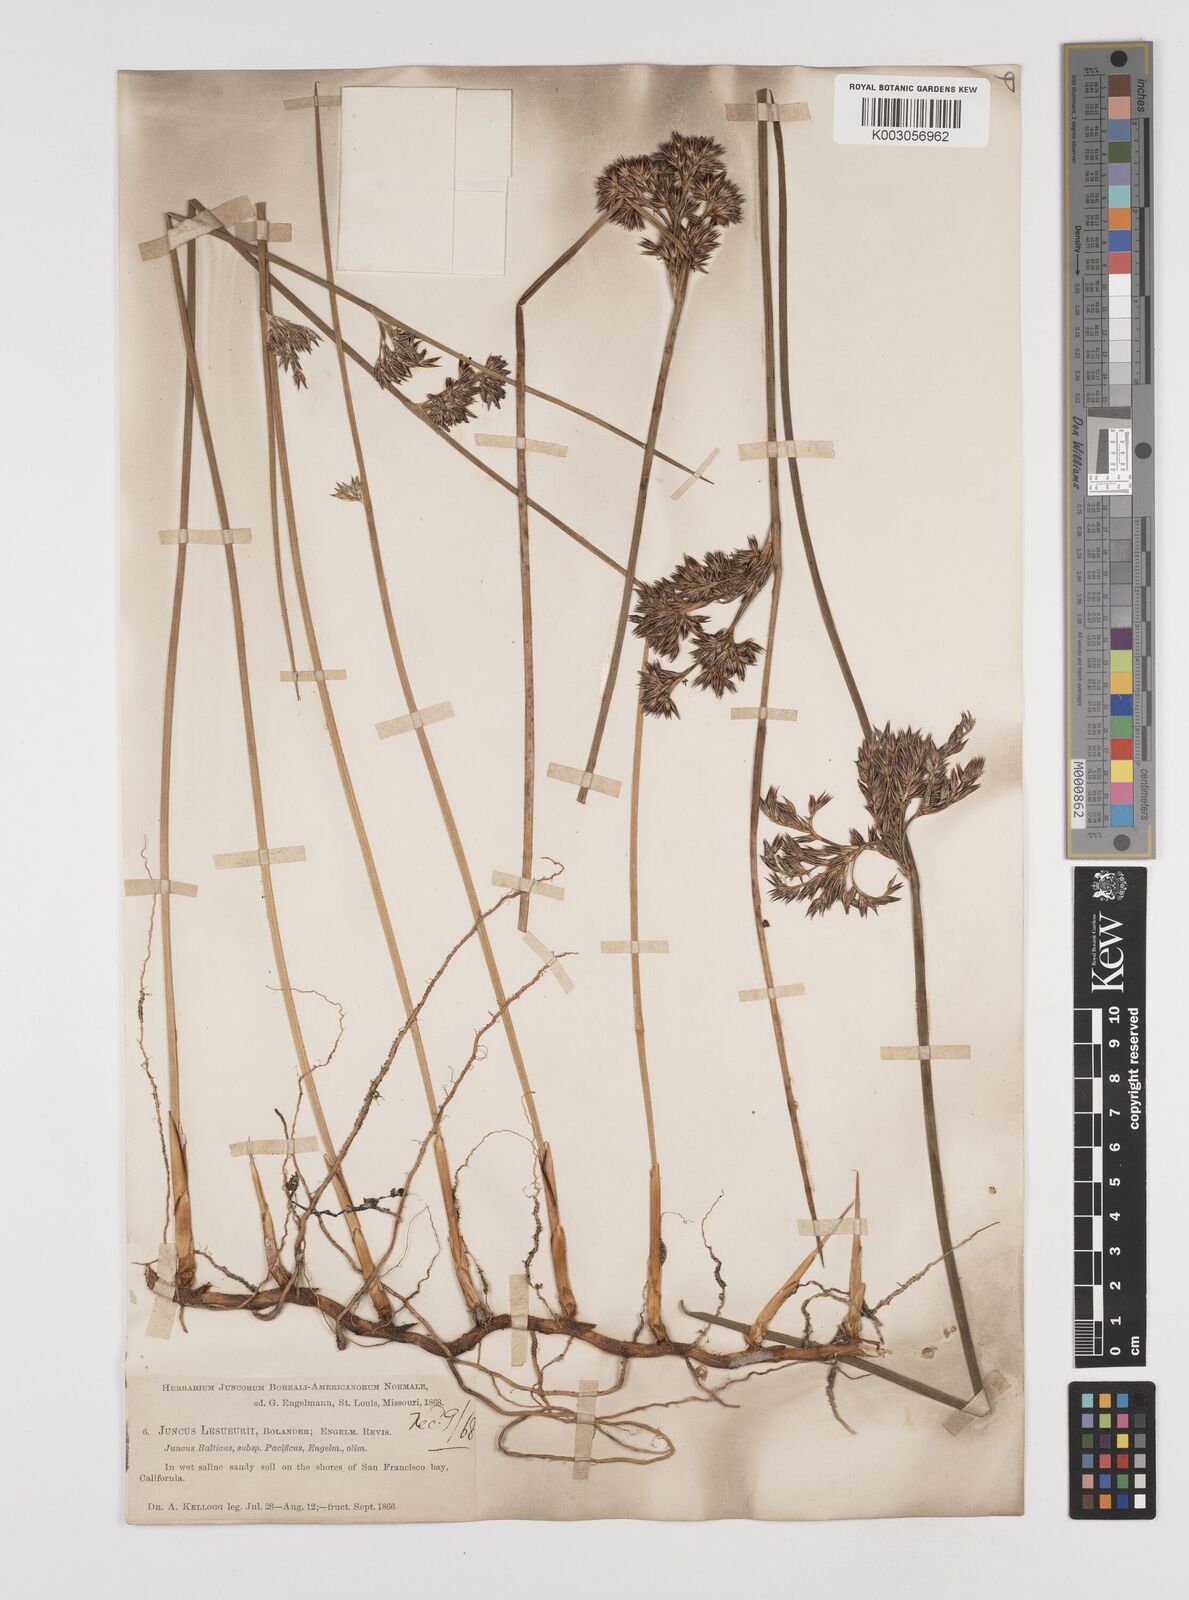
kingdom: Plantae
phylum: Tracheophyta
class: Liliopsida
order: Poales
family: Juncaceae
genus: Juncus
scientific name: Juncus lesueurii
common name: Lesueur's rush
